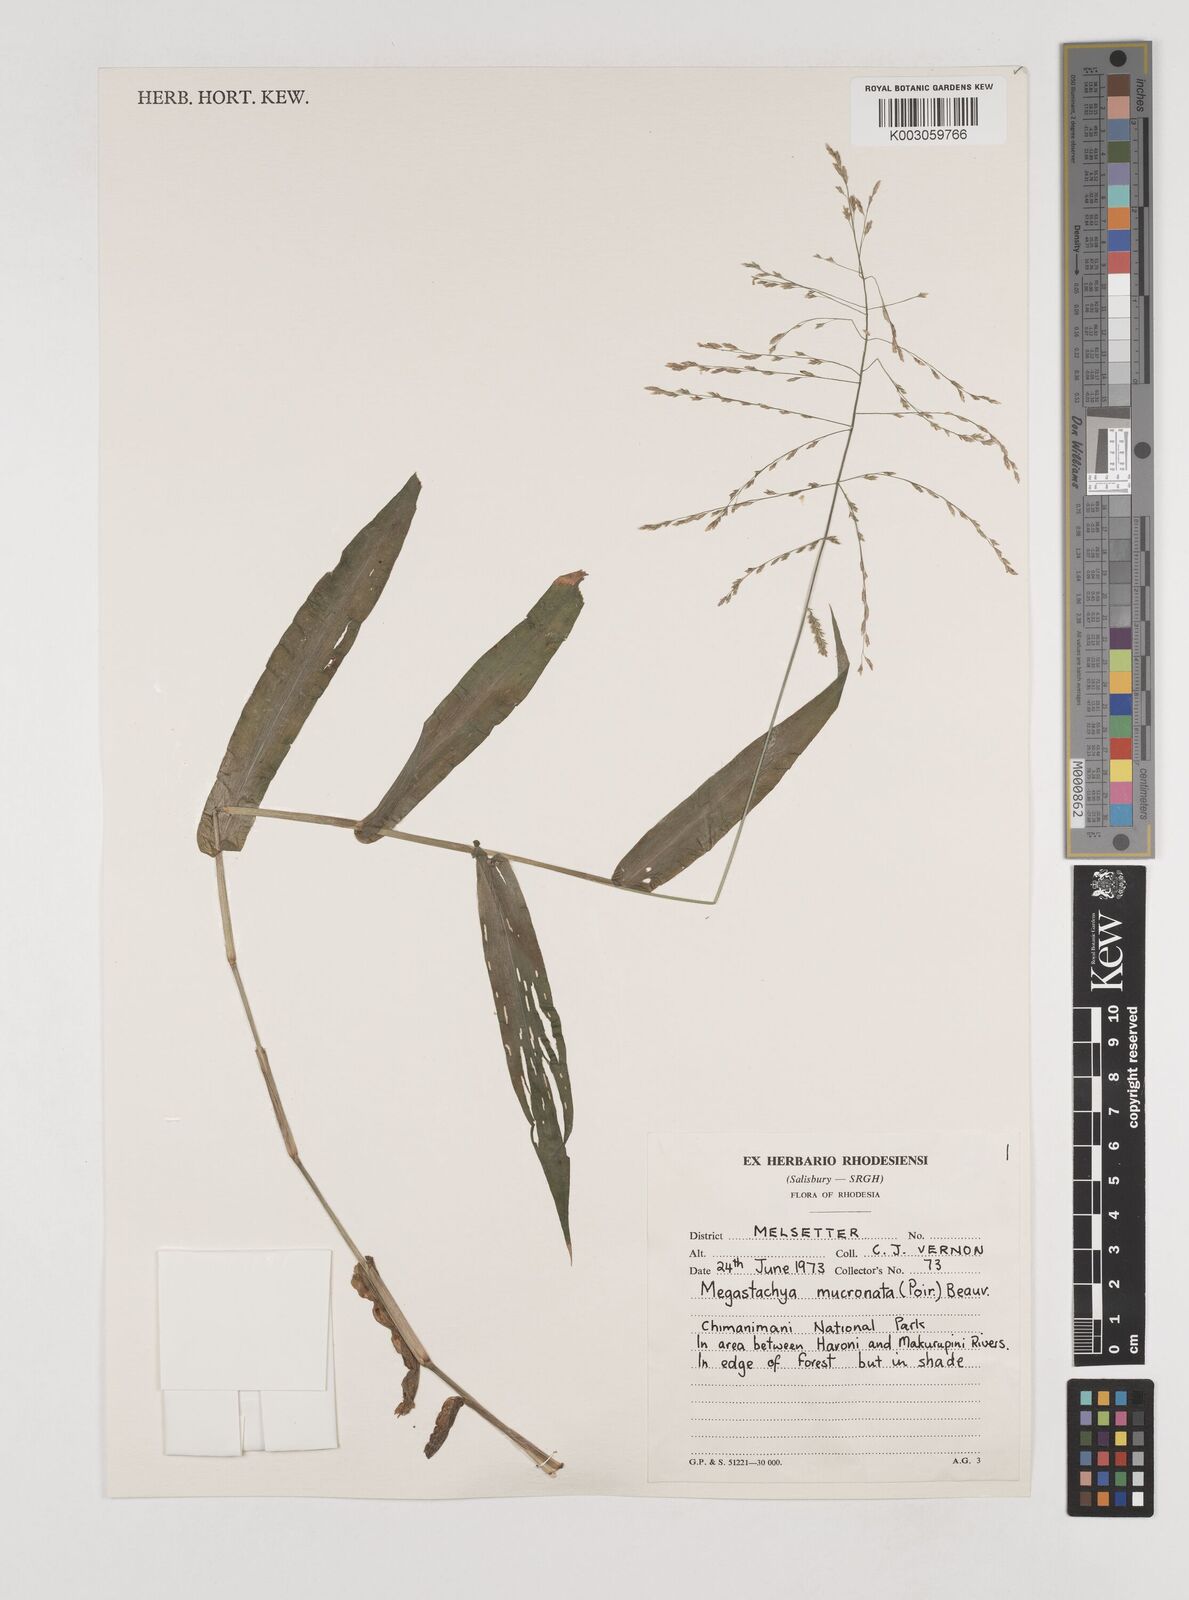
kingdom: Plantae
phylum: Tracheophyta
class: Liliopsida
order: Poales
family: Poaceae
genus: Megastachya
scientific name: Megastachya mucronata
